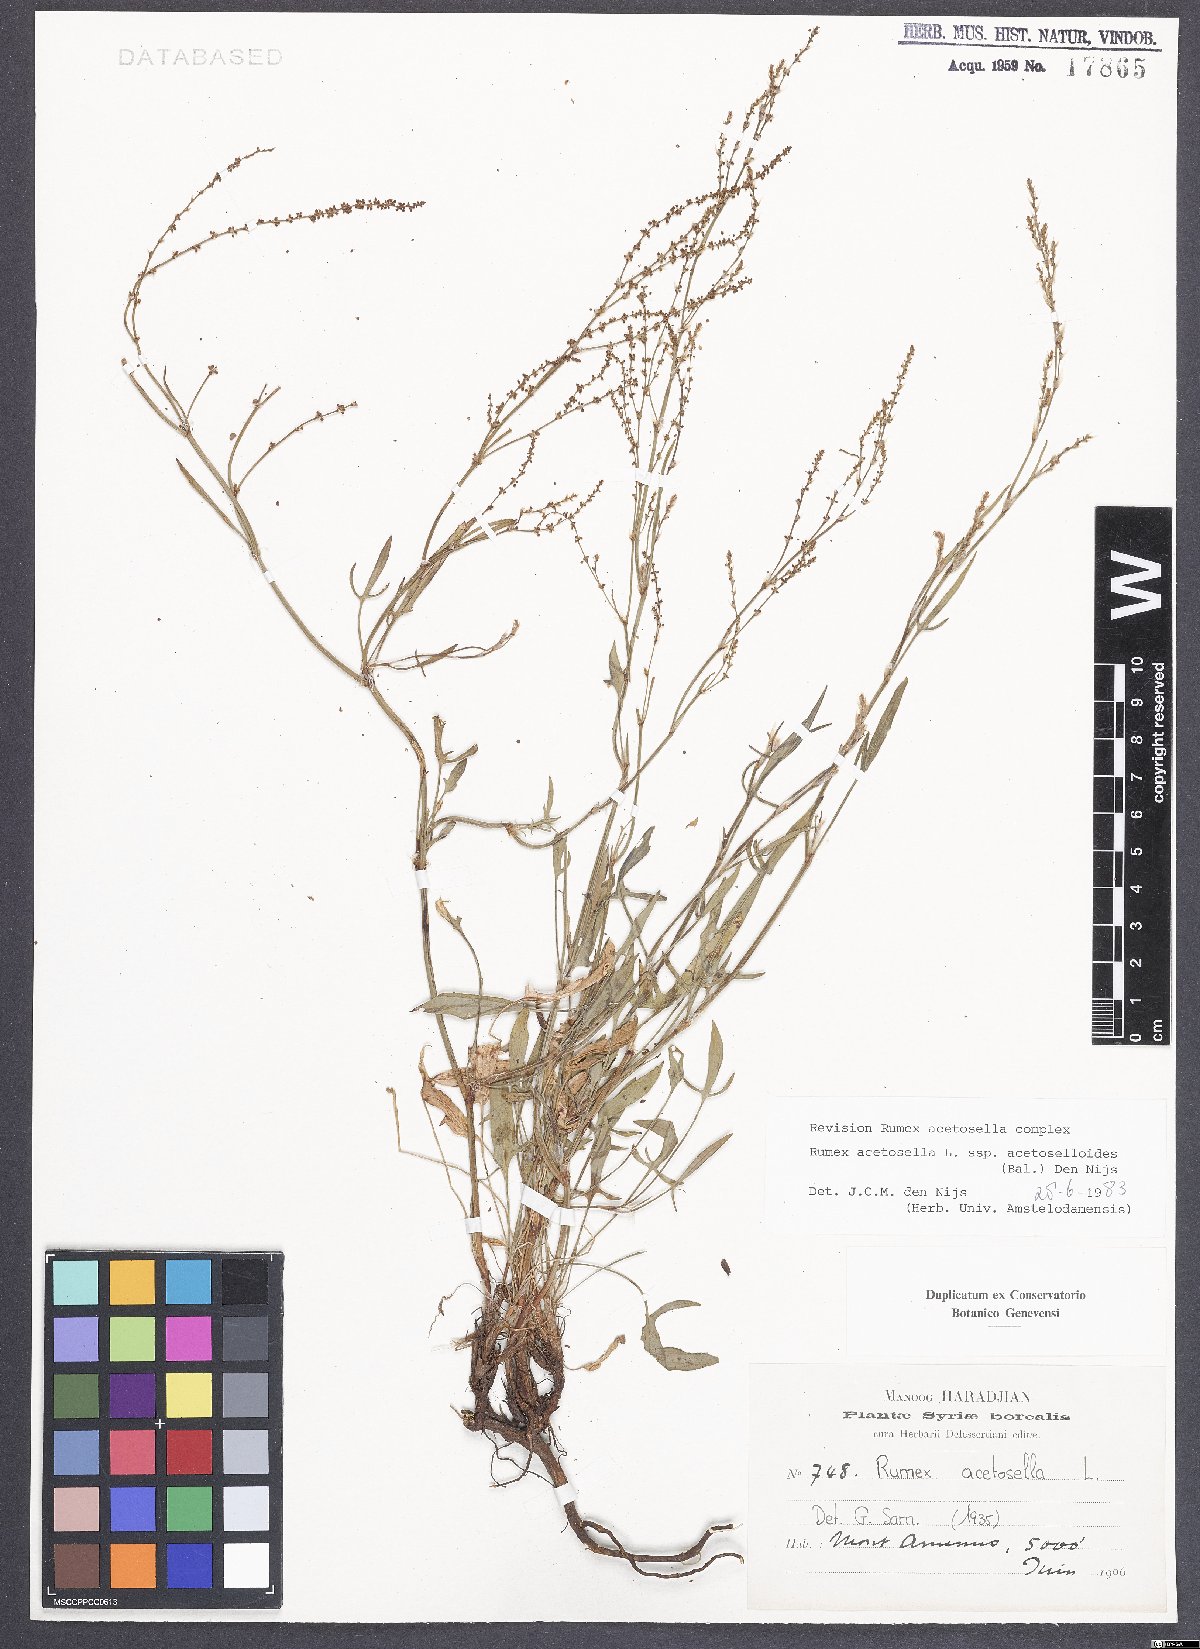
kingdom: Plantae
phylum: Tracheophyta
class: Magnoliopsida
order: Caryophyllales
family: Polygonaceae
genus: Rumex
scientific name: Rumex acetosella
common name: Common sheep sorrel
